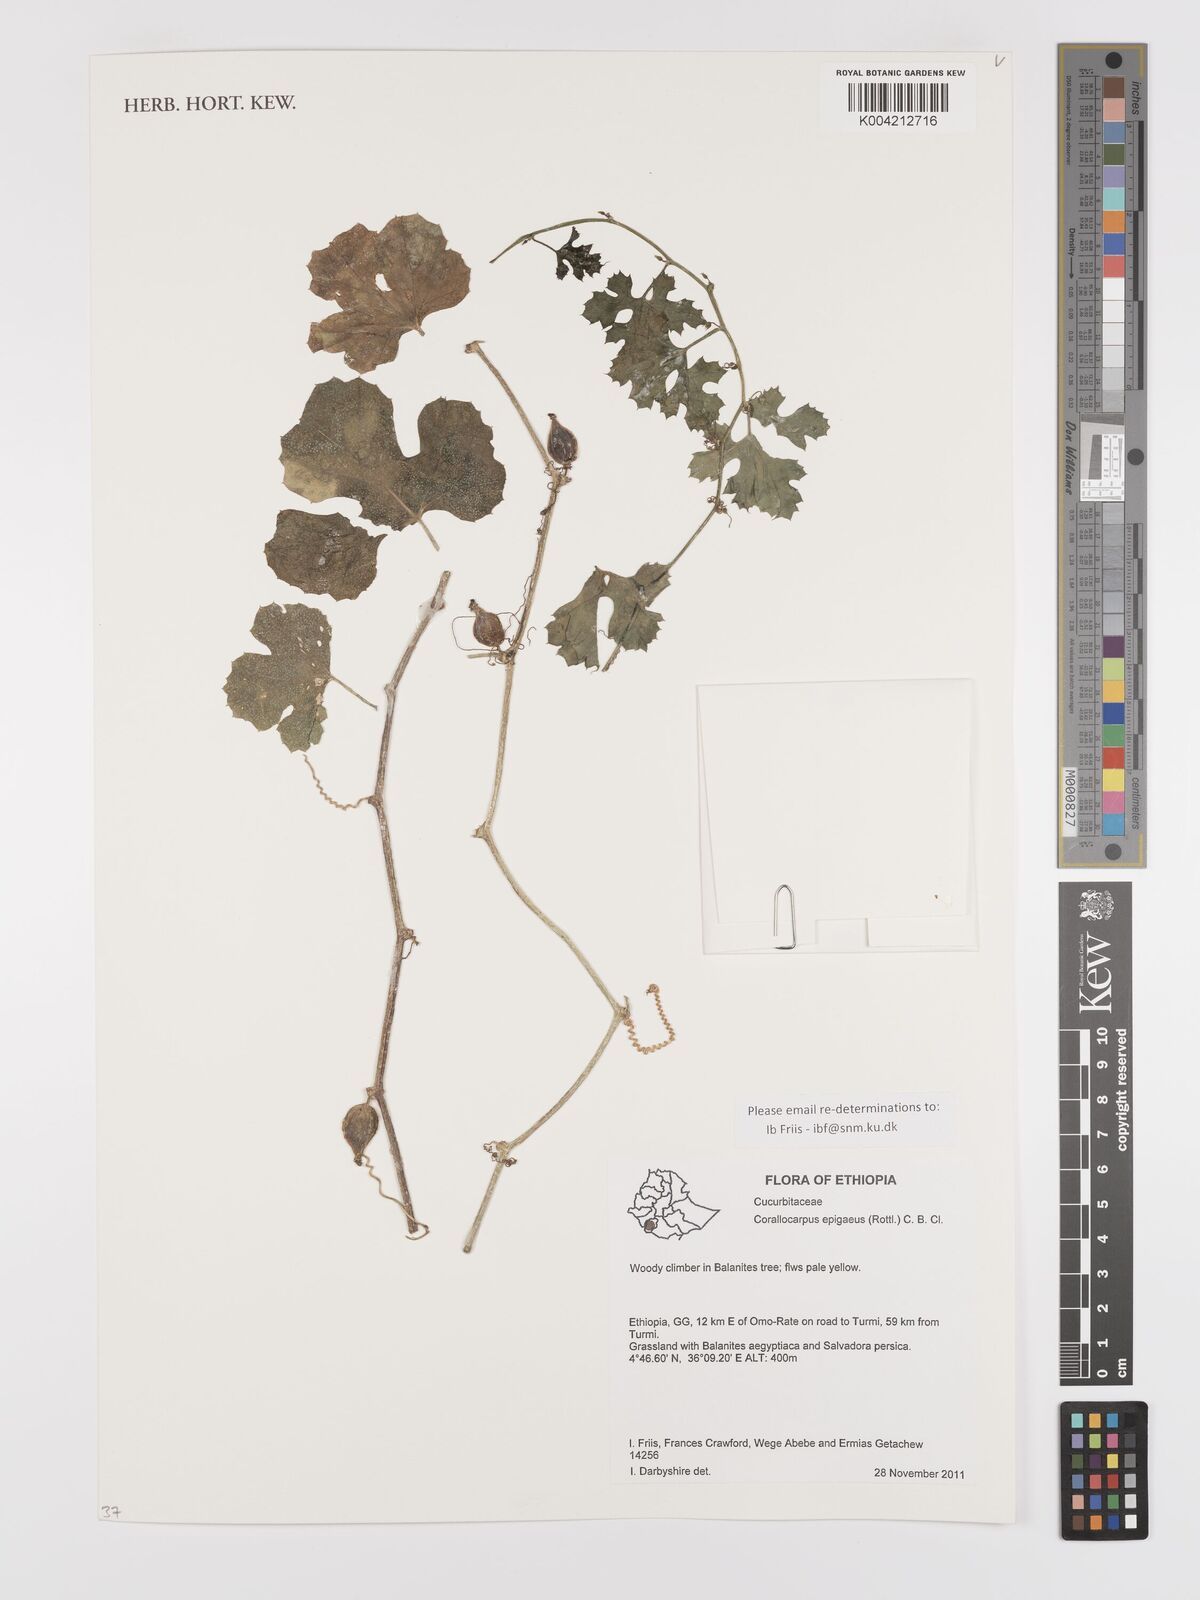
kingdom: Plantae
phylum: Tracheophyta
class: Magnoliopsida
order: Cucurbitales
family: Cucurbitaceae
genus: Corallocarpus
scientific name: Corallocarpus epigaeus
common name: Indian bryonia
